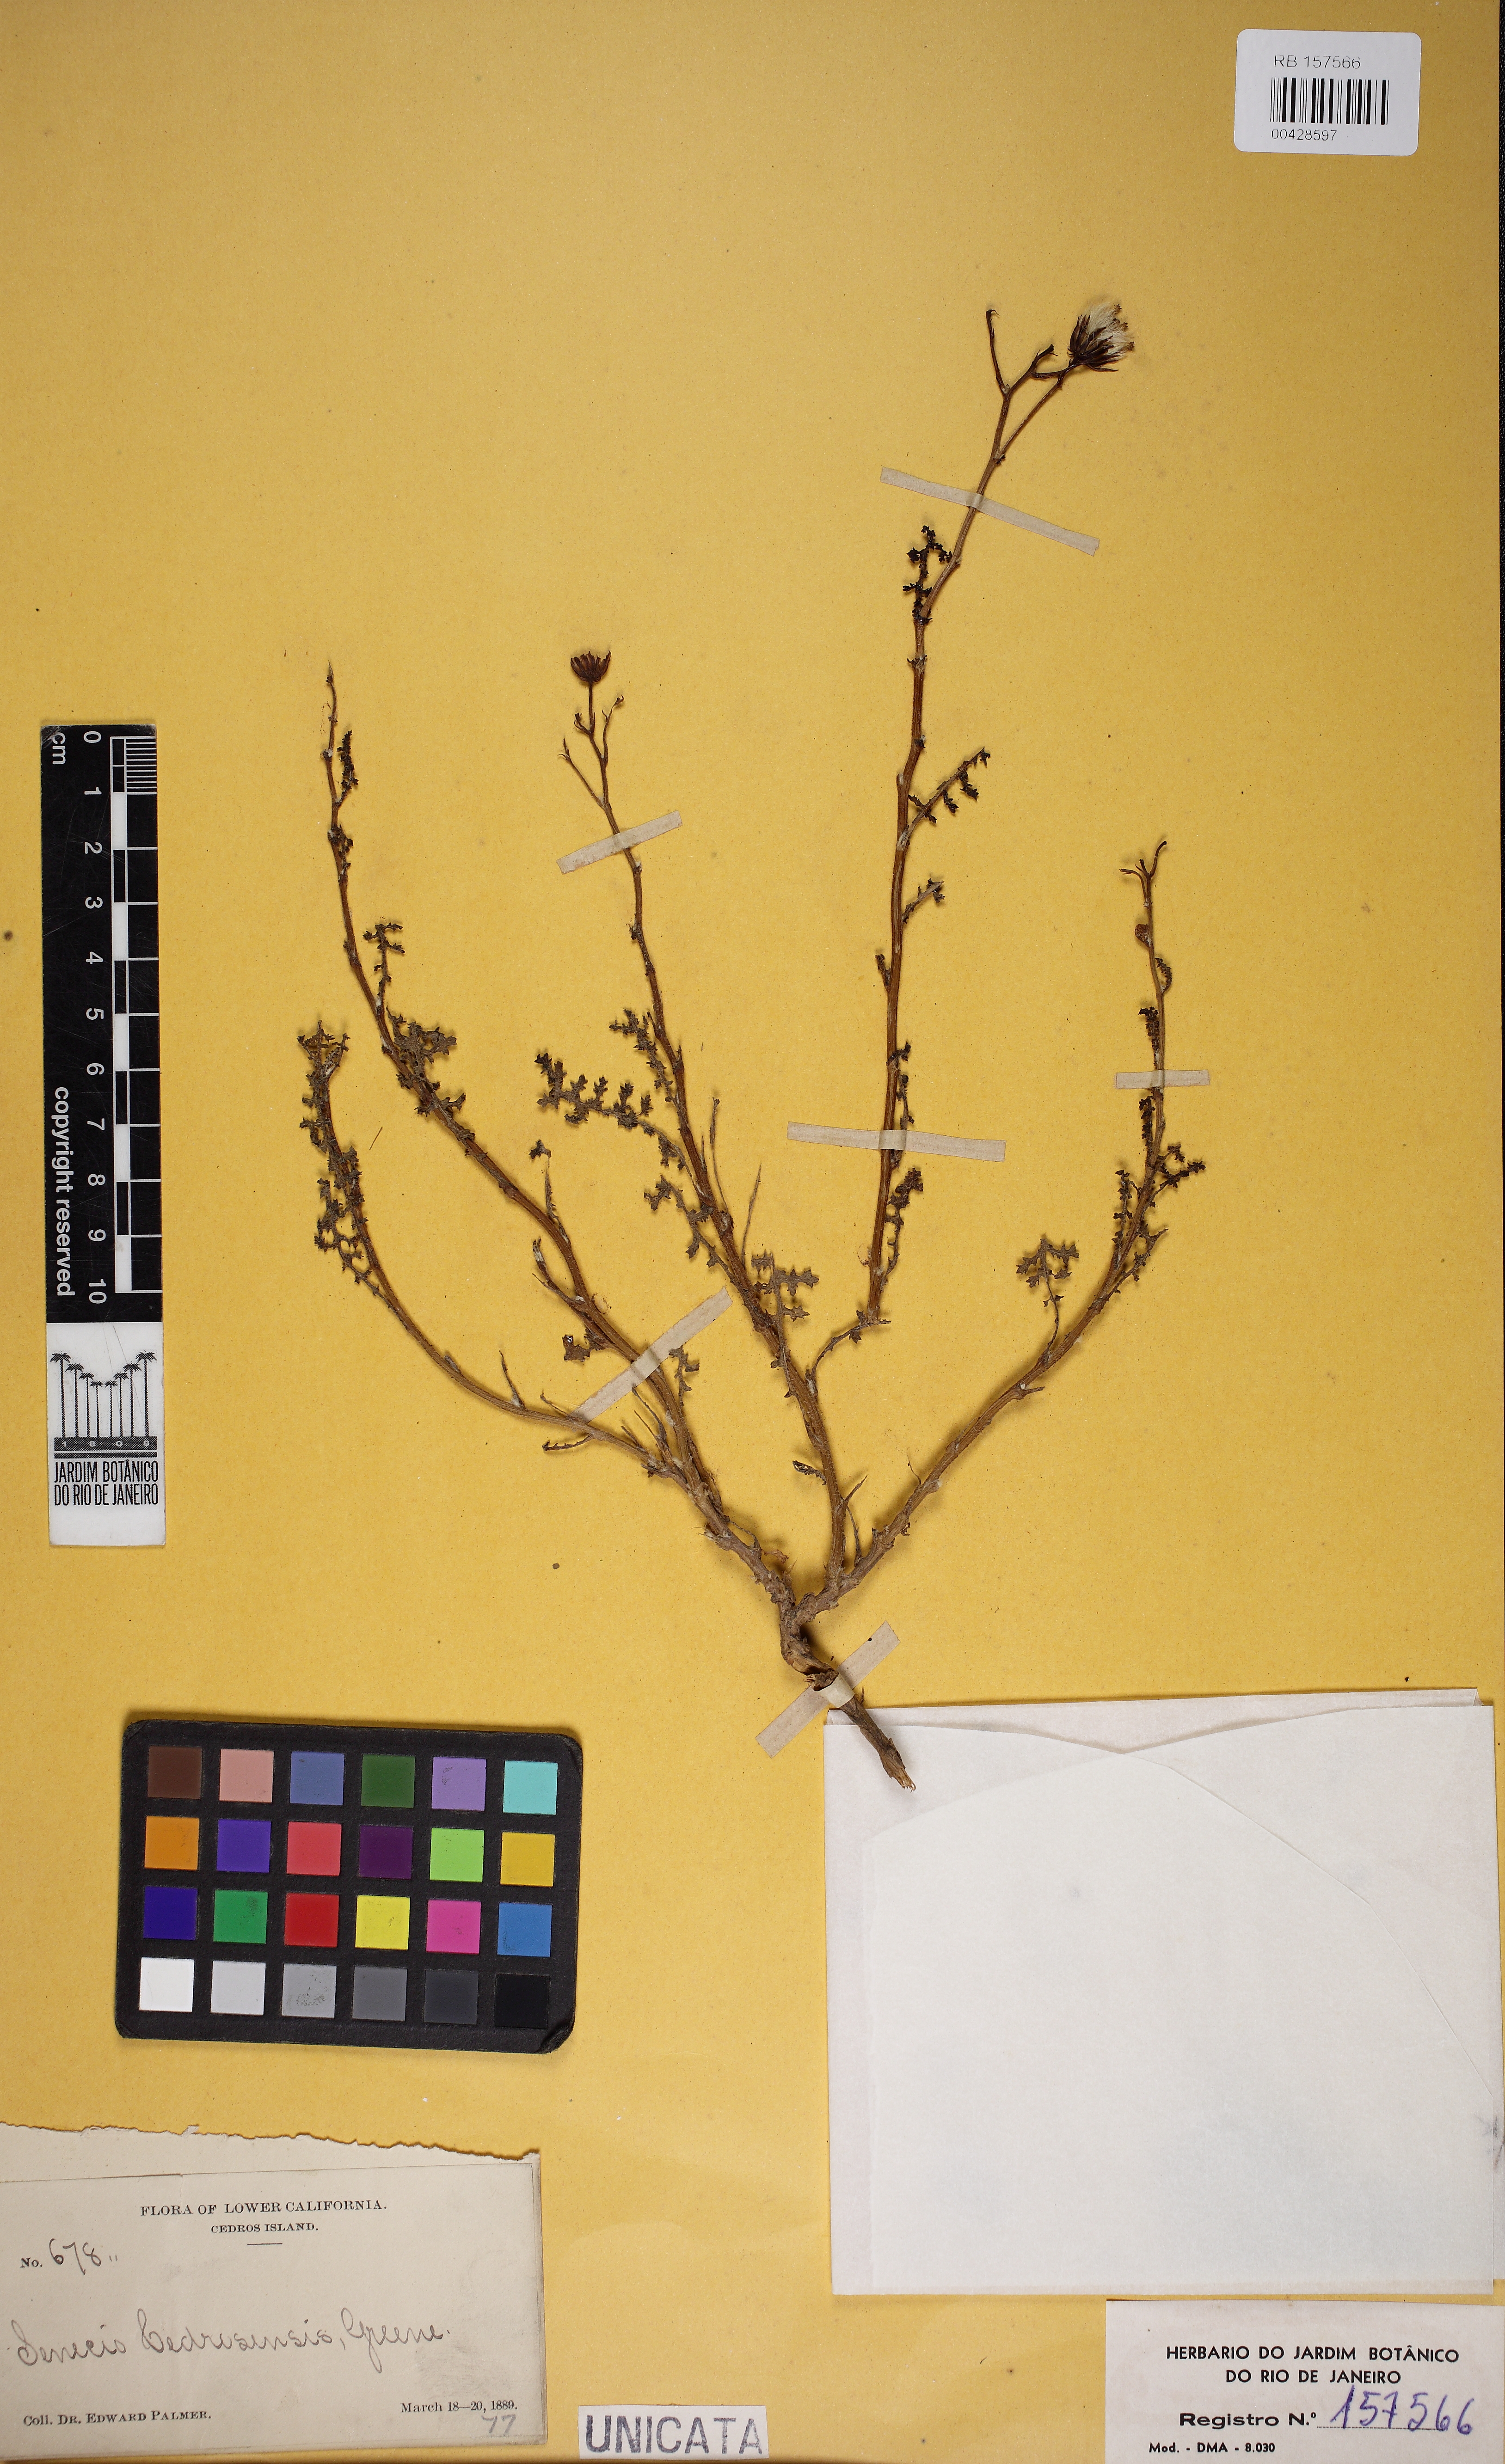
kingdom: Plantae
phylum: Tracheophyta
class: Magnoliopsida
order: Asterales
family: Asteraceae
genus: Senecio
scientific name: Senecio cedrosensis
